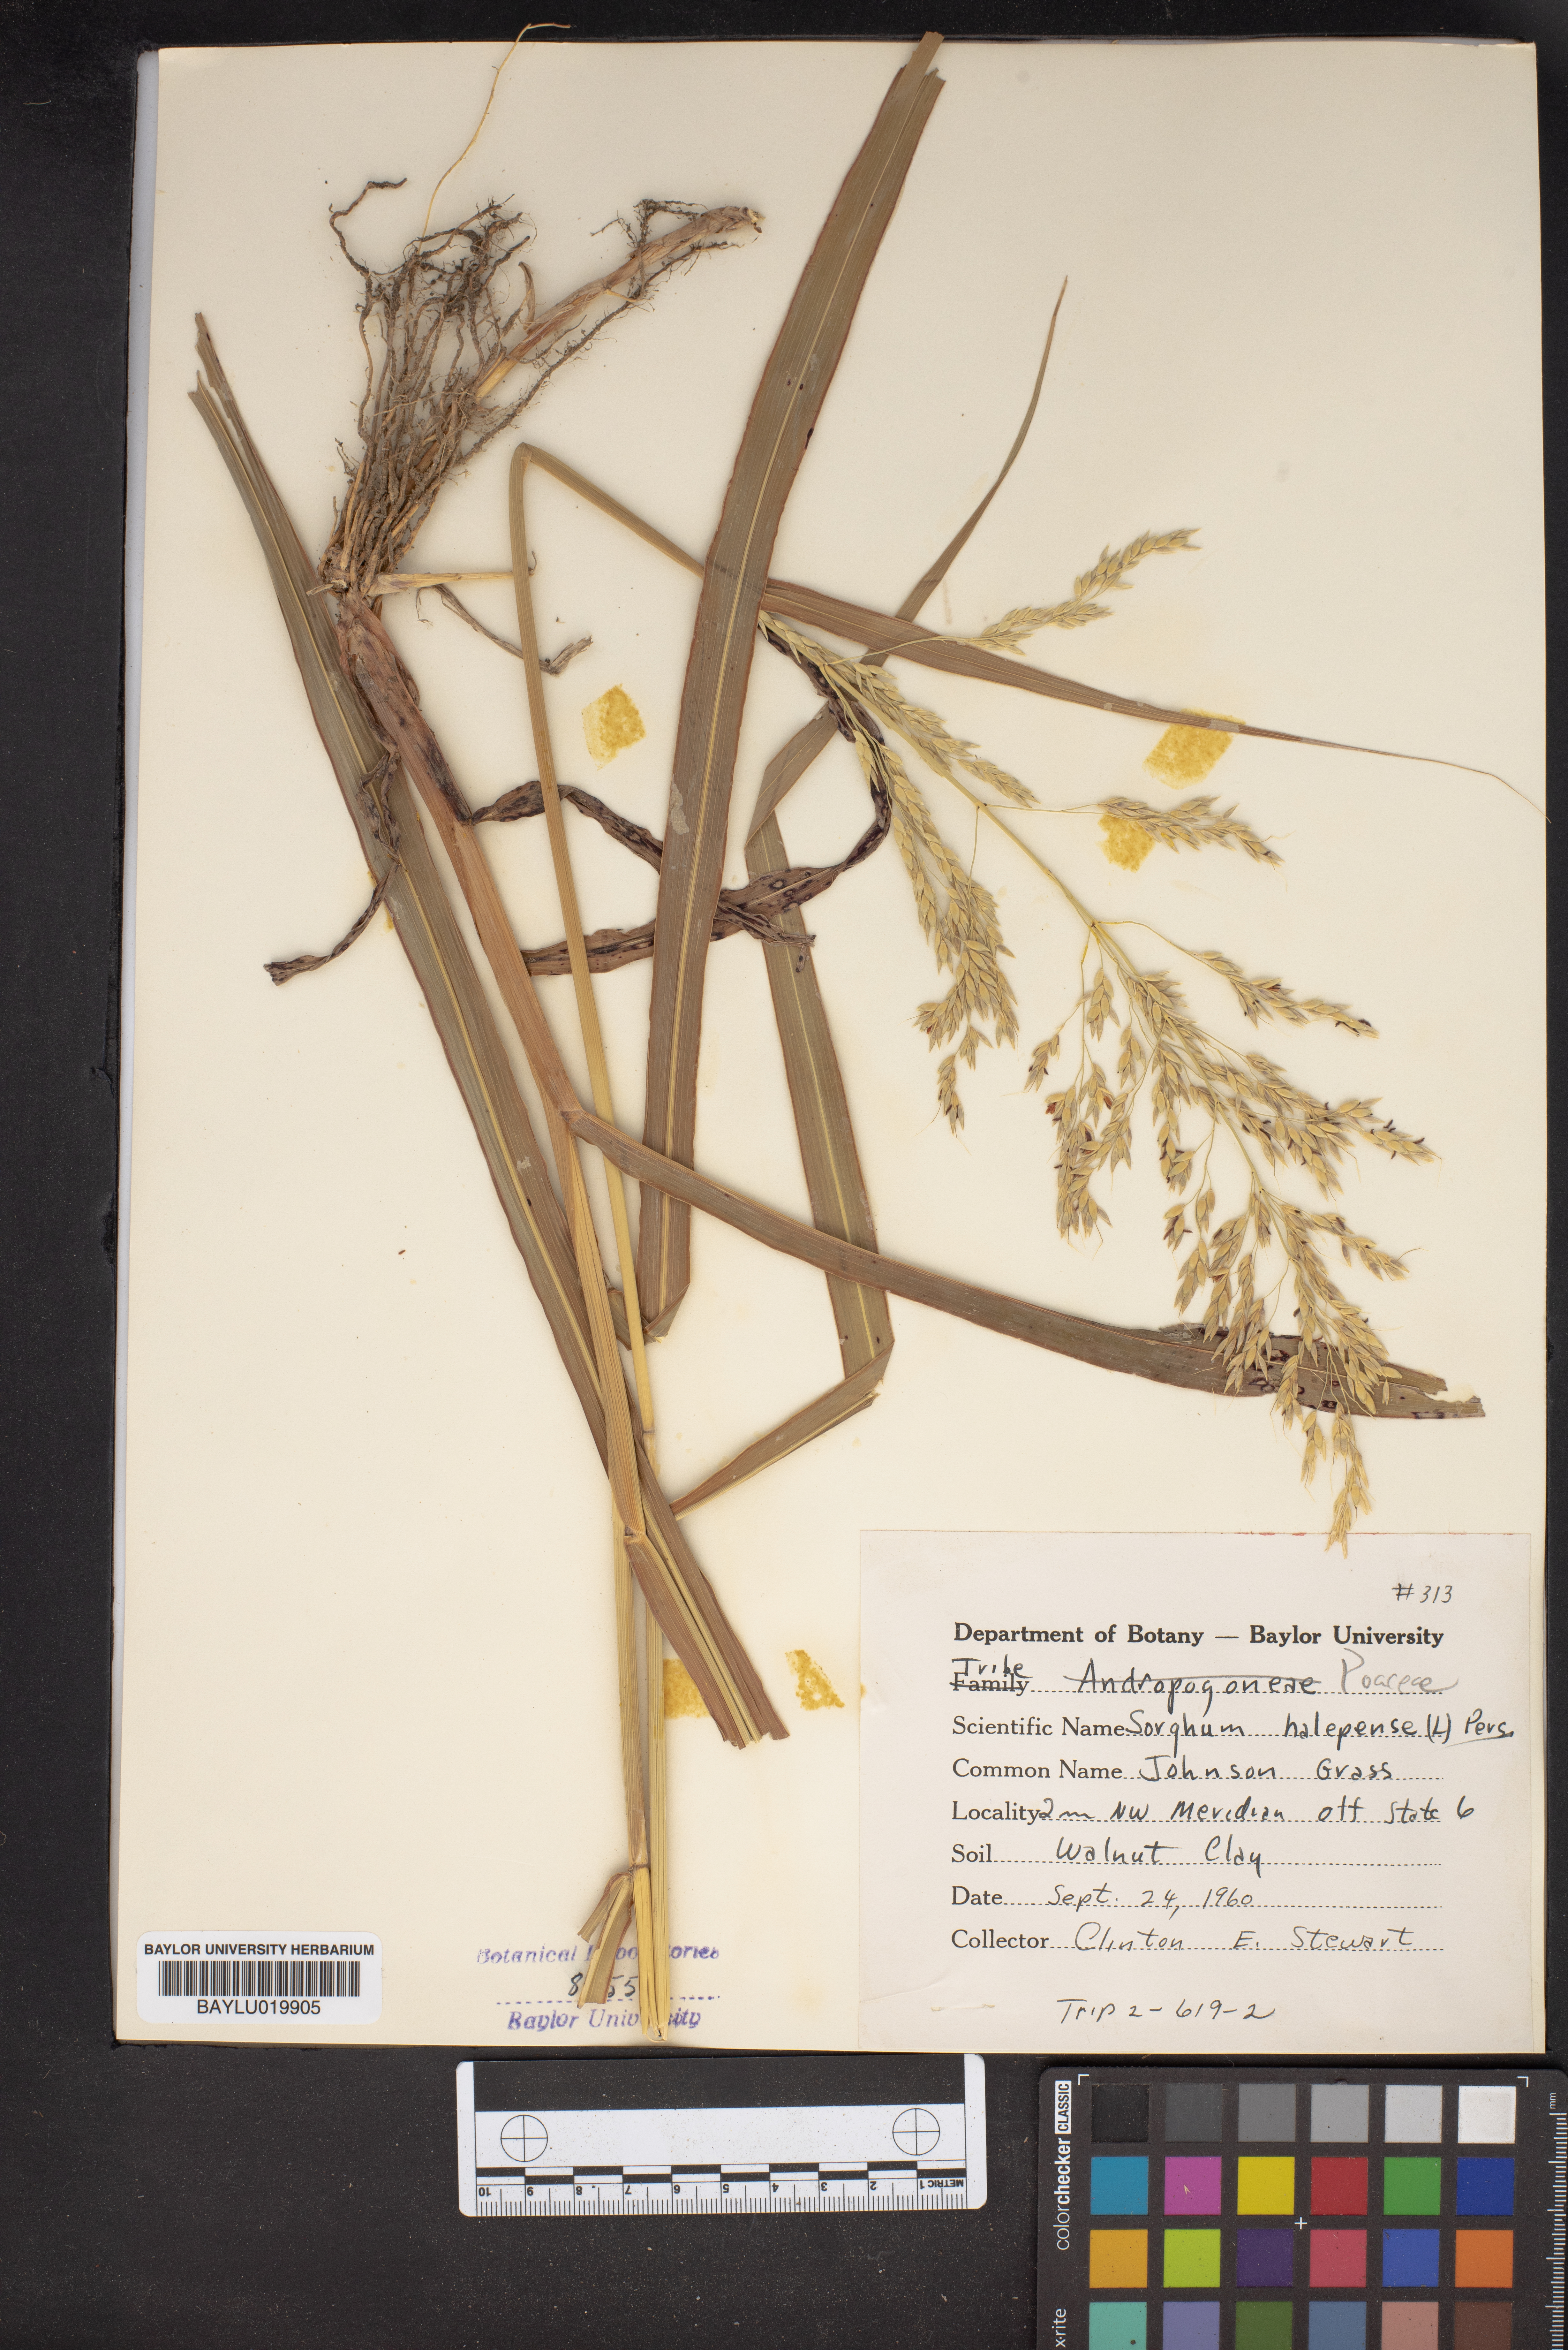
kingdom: Plantae
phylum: Tracheophyta
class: Liliopsida
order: Poales
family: Poaceae
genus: Sorghum
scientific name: Sorghum halepense
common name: Johnson-grass
